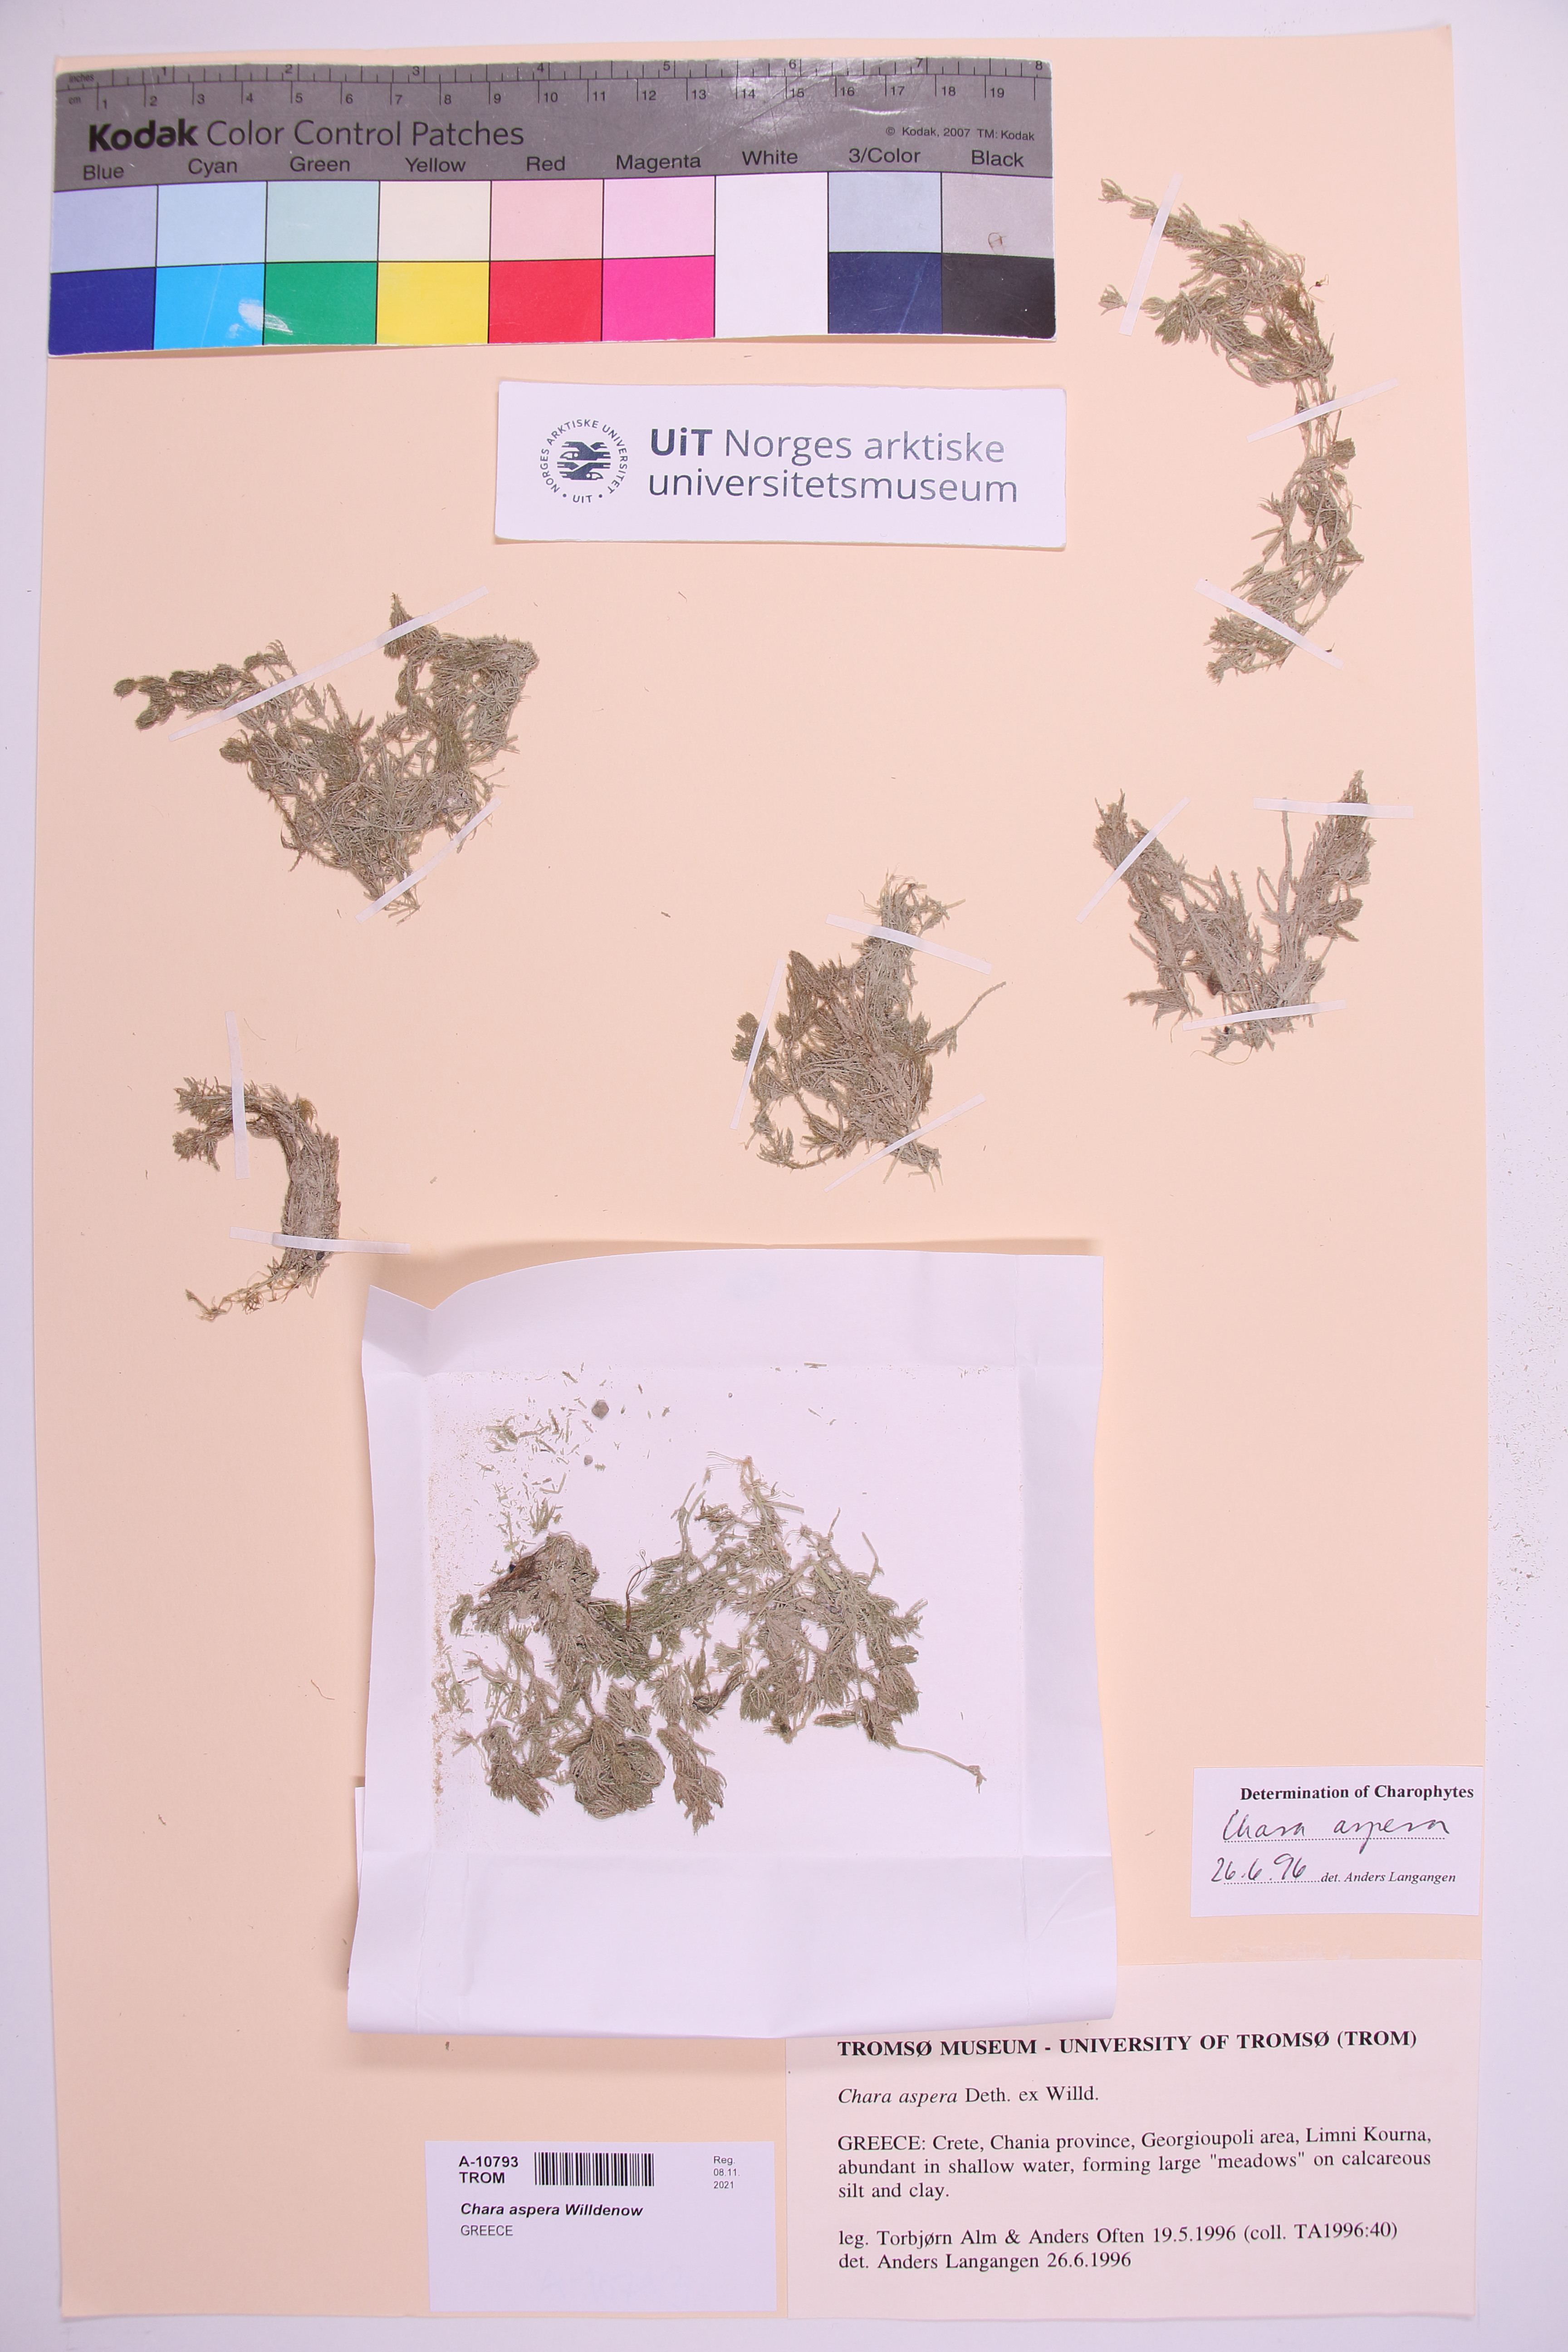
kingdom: Plantae
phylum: Charophyta
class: Charophyceae
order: Charales
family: Characeae
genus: Chara
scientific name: Chara aspera
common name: Rough stonewort
